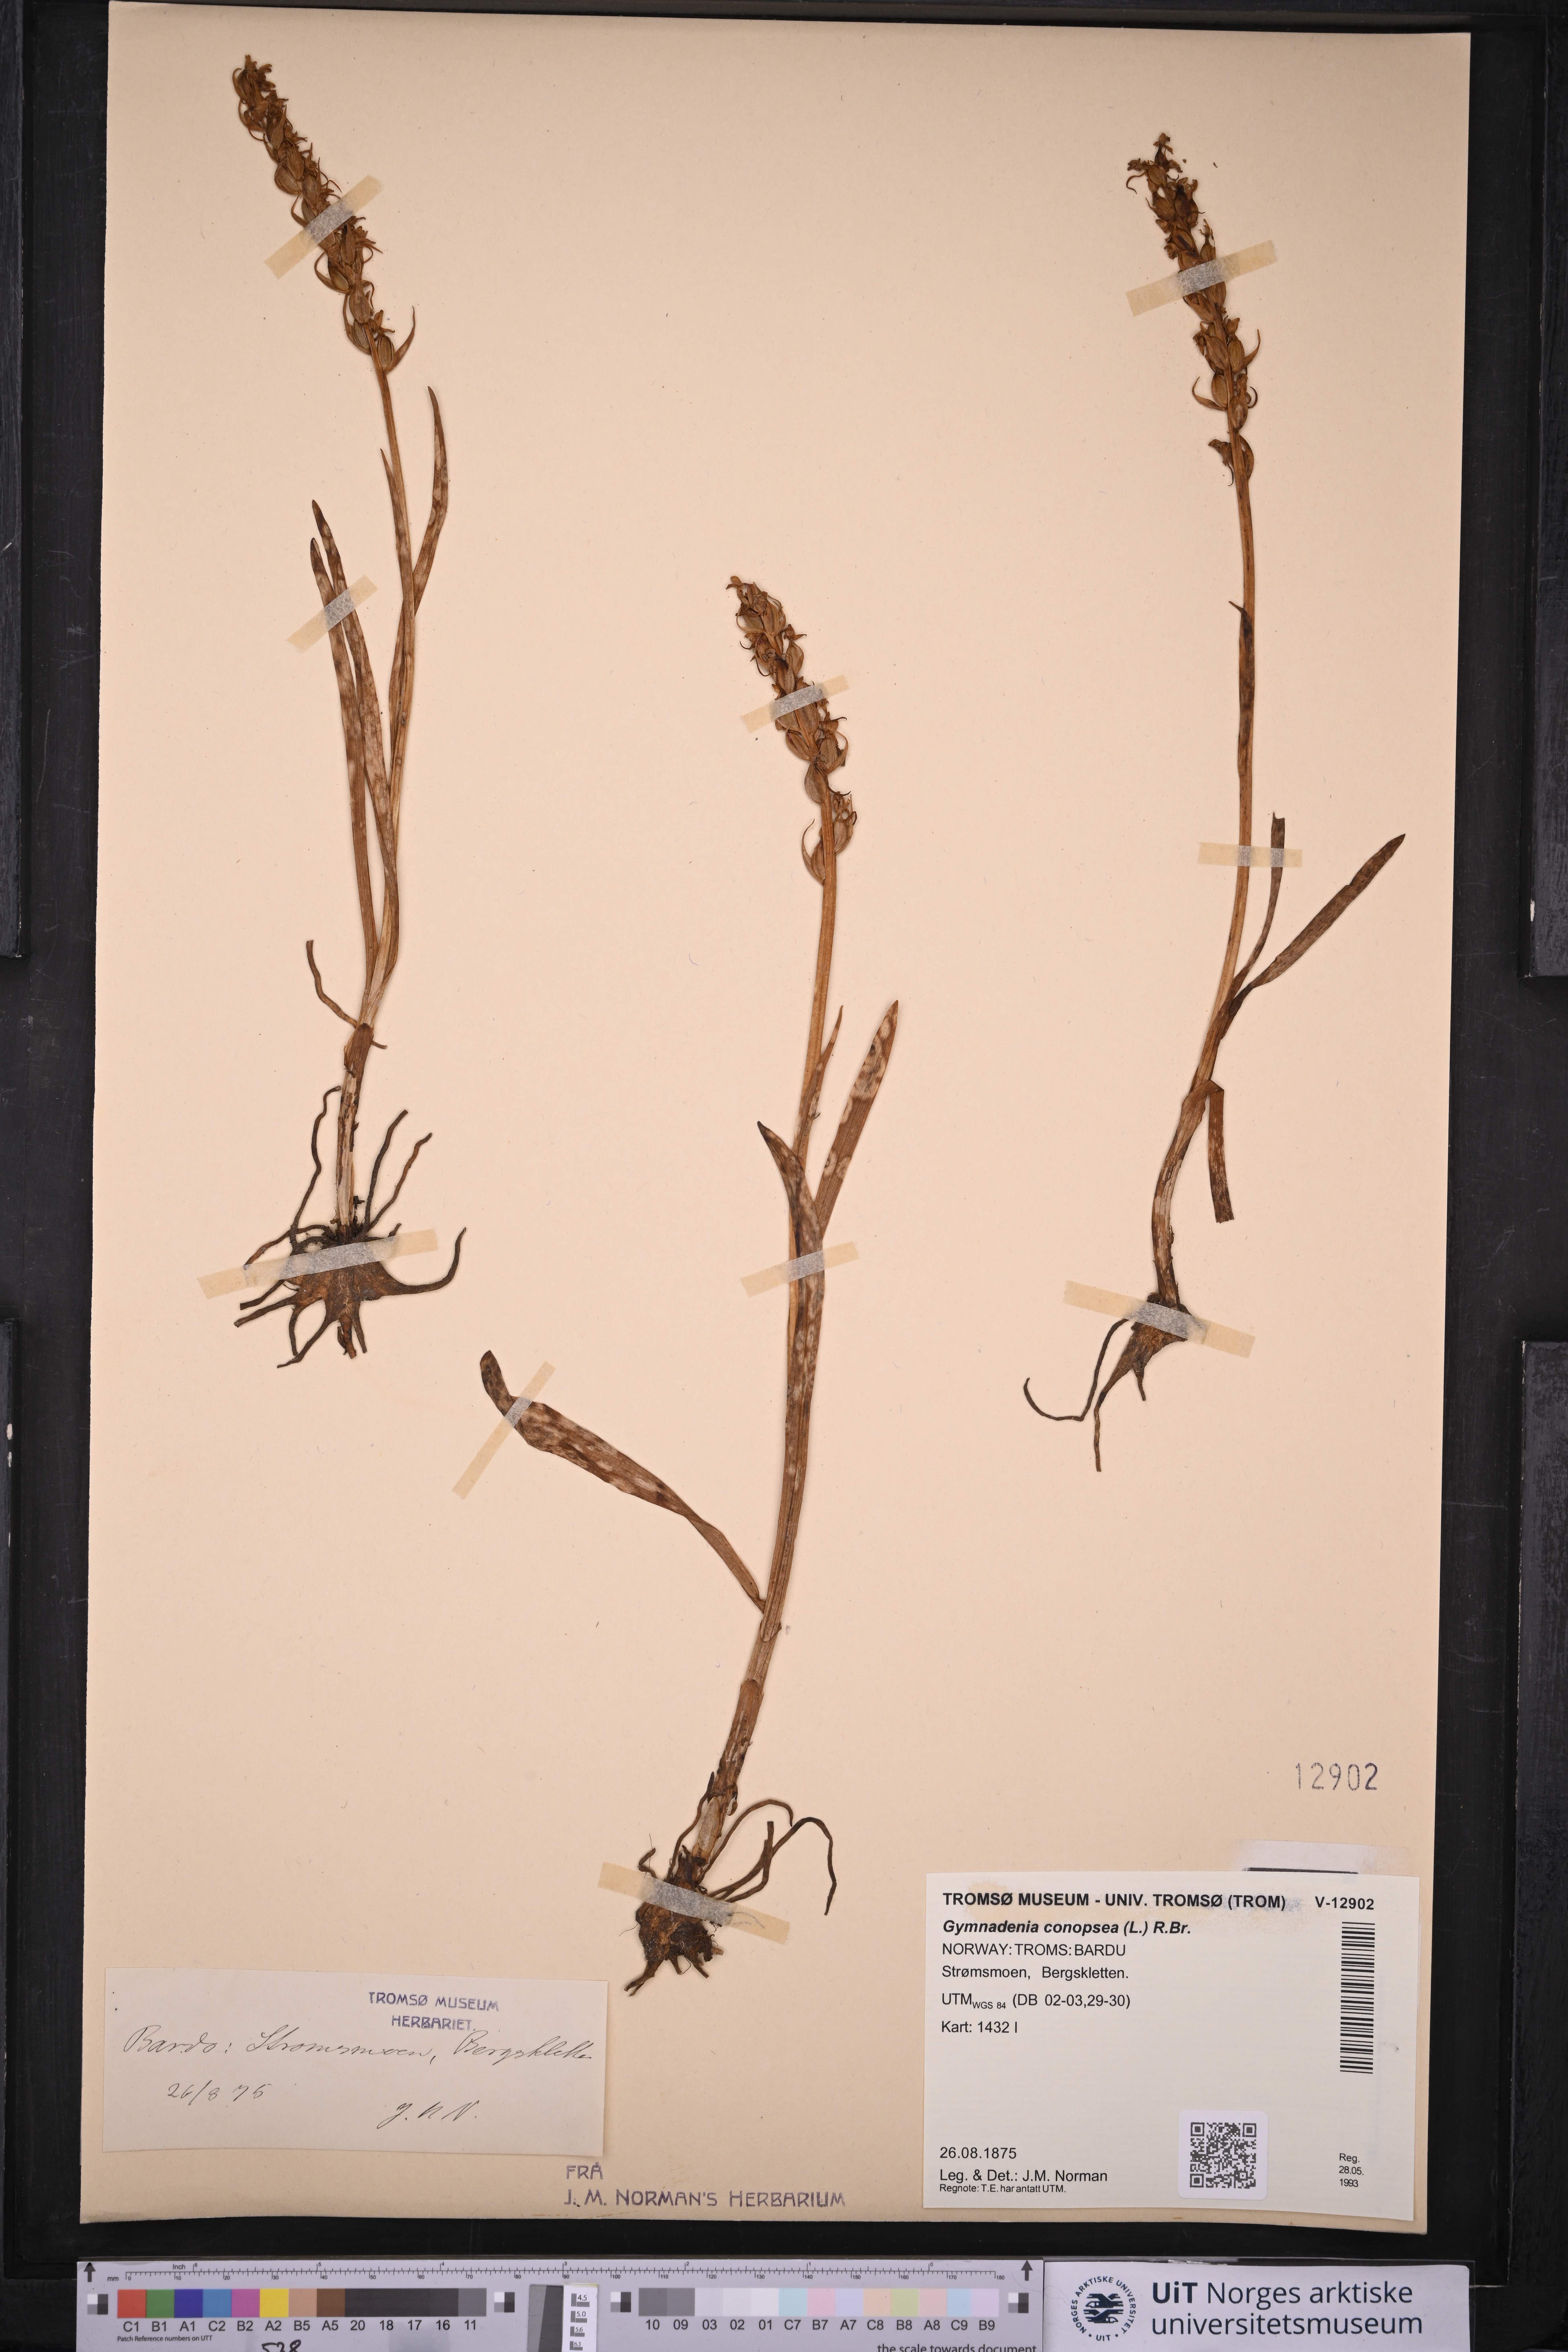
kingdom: Plantae
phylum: Tracheophyta
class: Liliopsida
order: Asparagales
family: Orchidaceae
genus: Gymnadenia
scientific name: Gymnadenia conopsea
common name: Fragrant orchid
